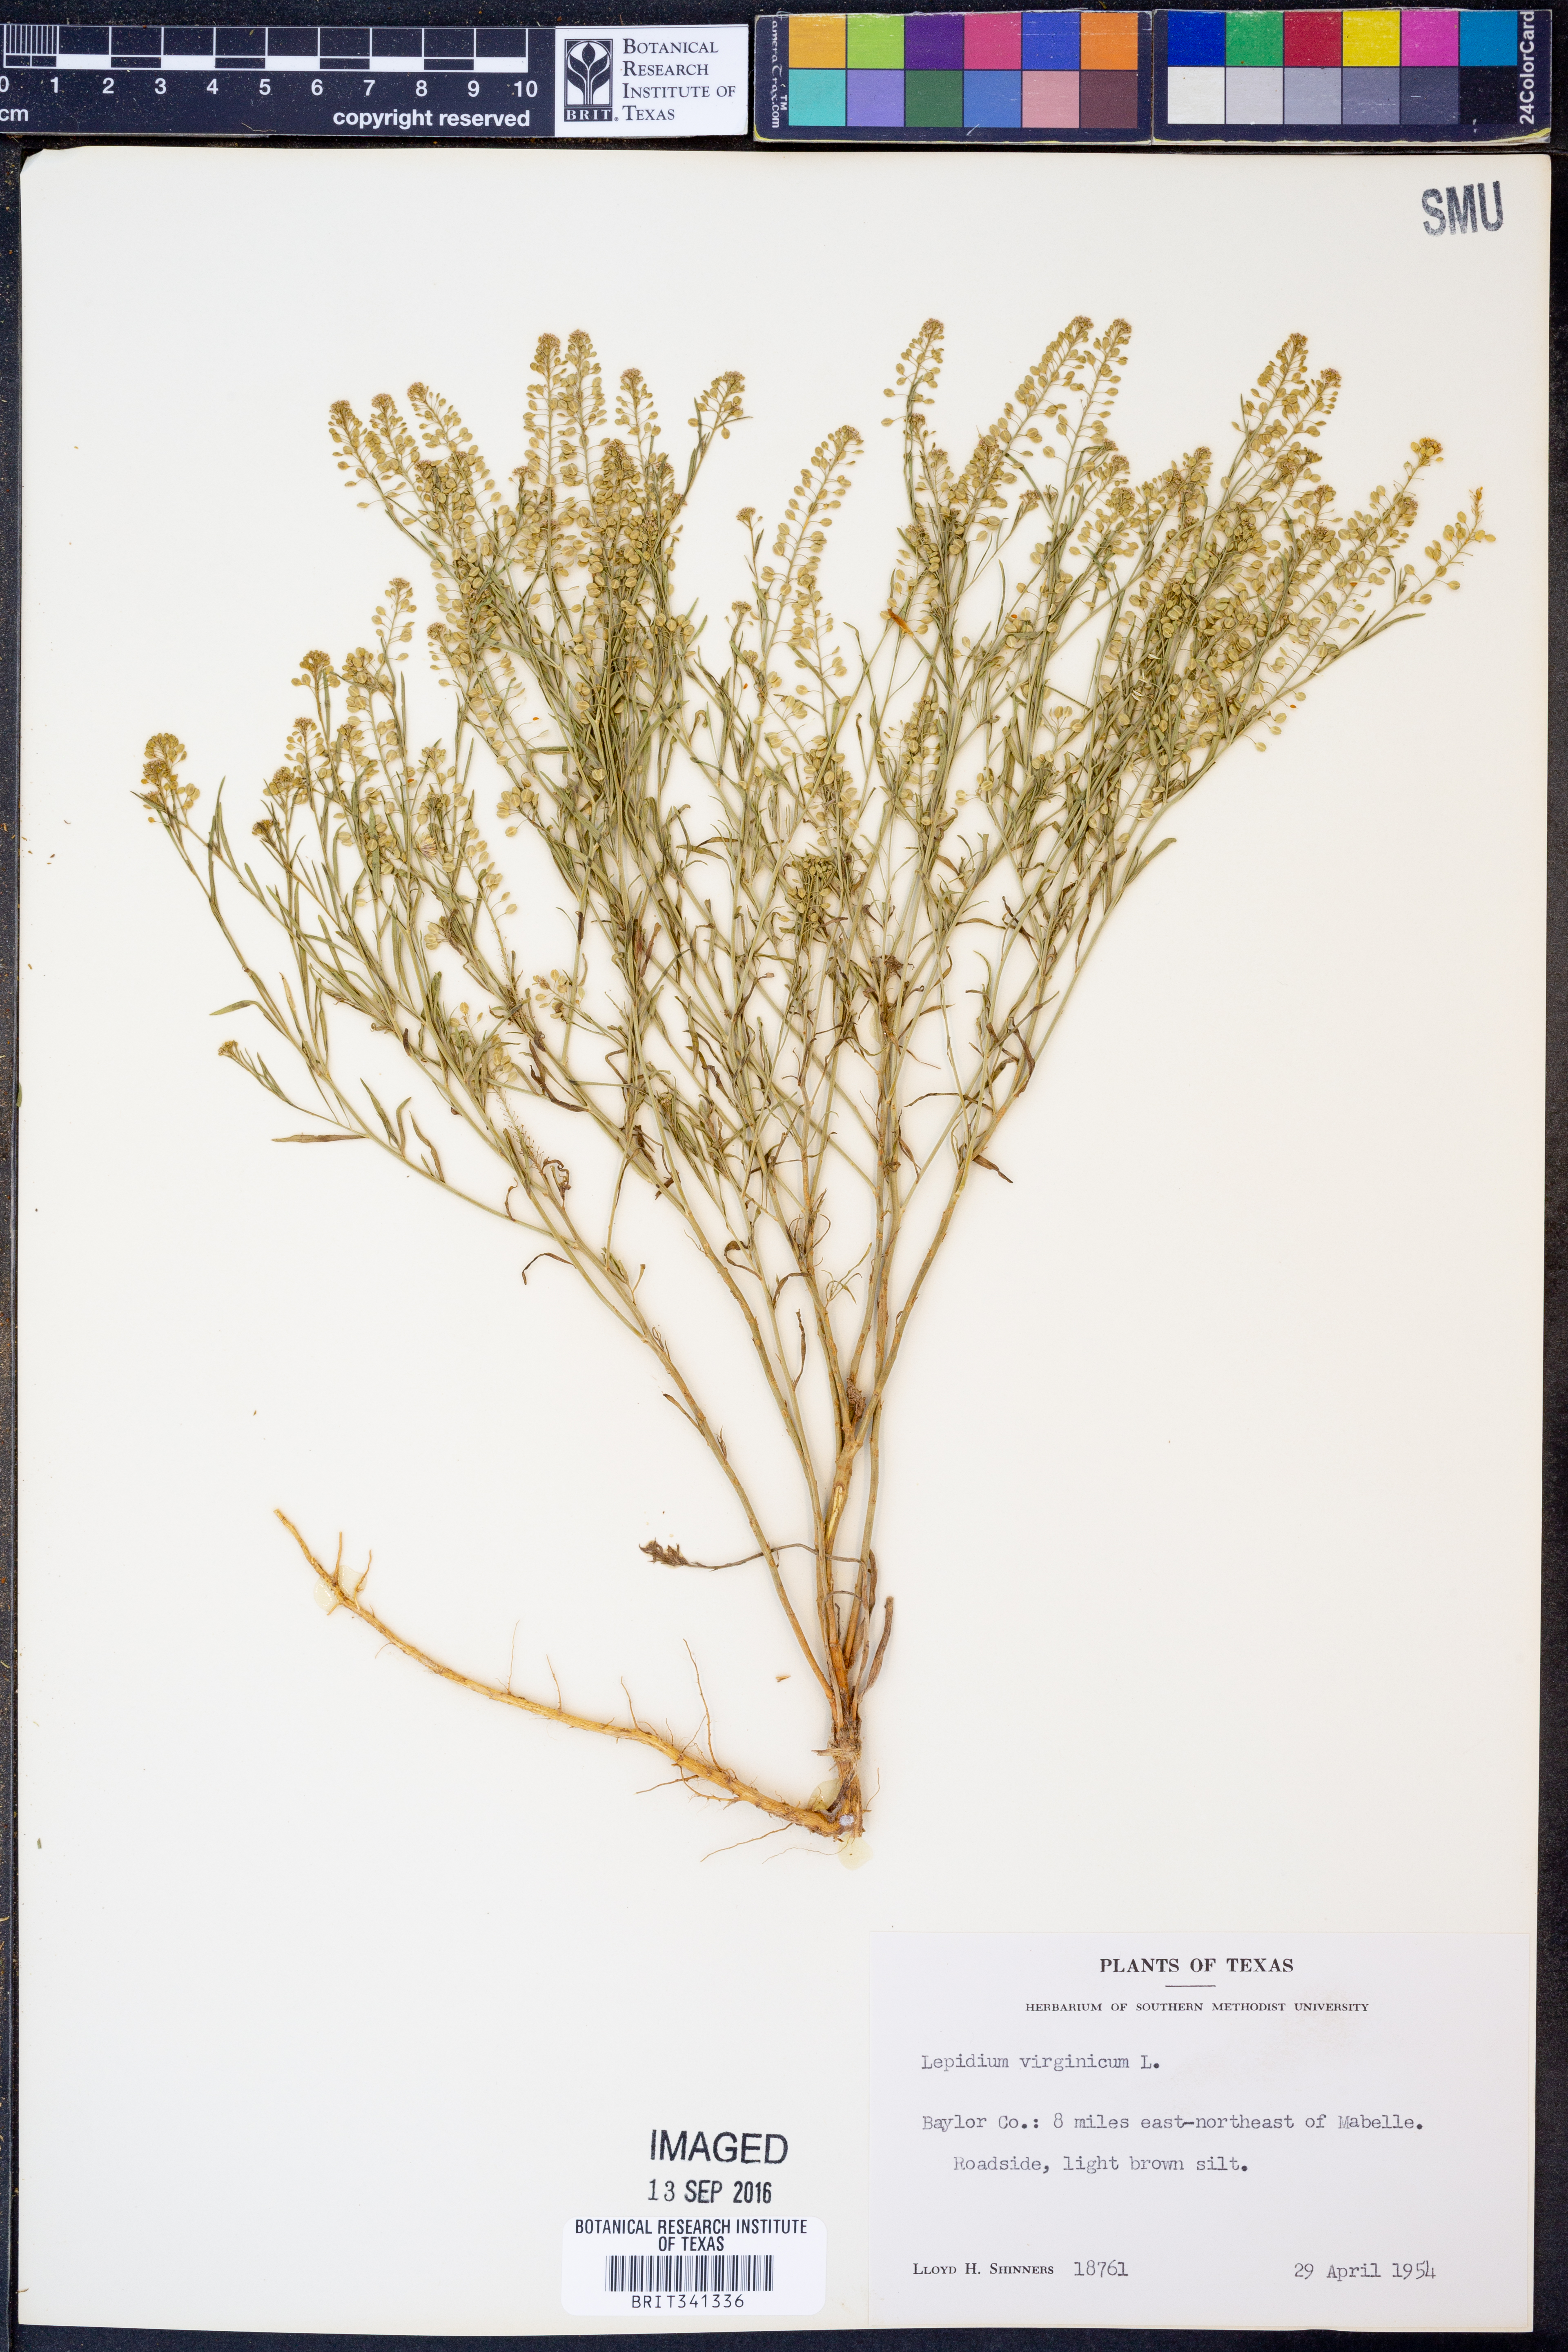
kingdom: Plantae
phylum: Tracheophyta
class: Magnoliopsida
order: Brassicales
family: Brassicaceae
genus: Lepidium
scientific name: Lepidium virginicum
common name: Least pepperwort
